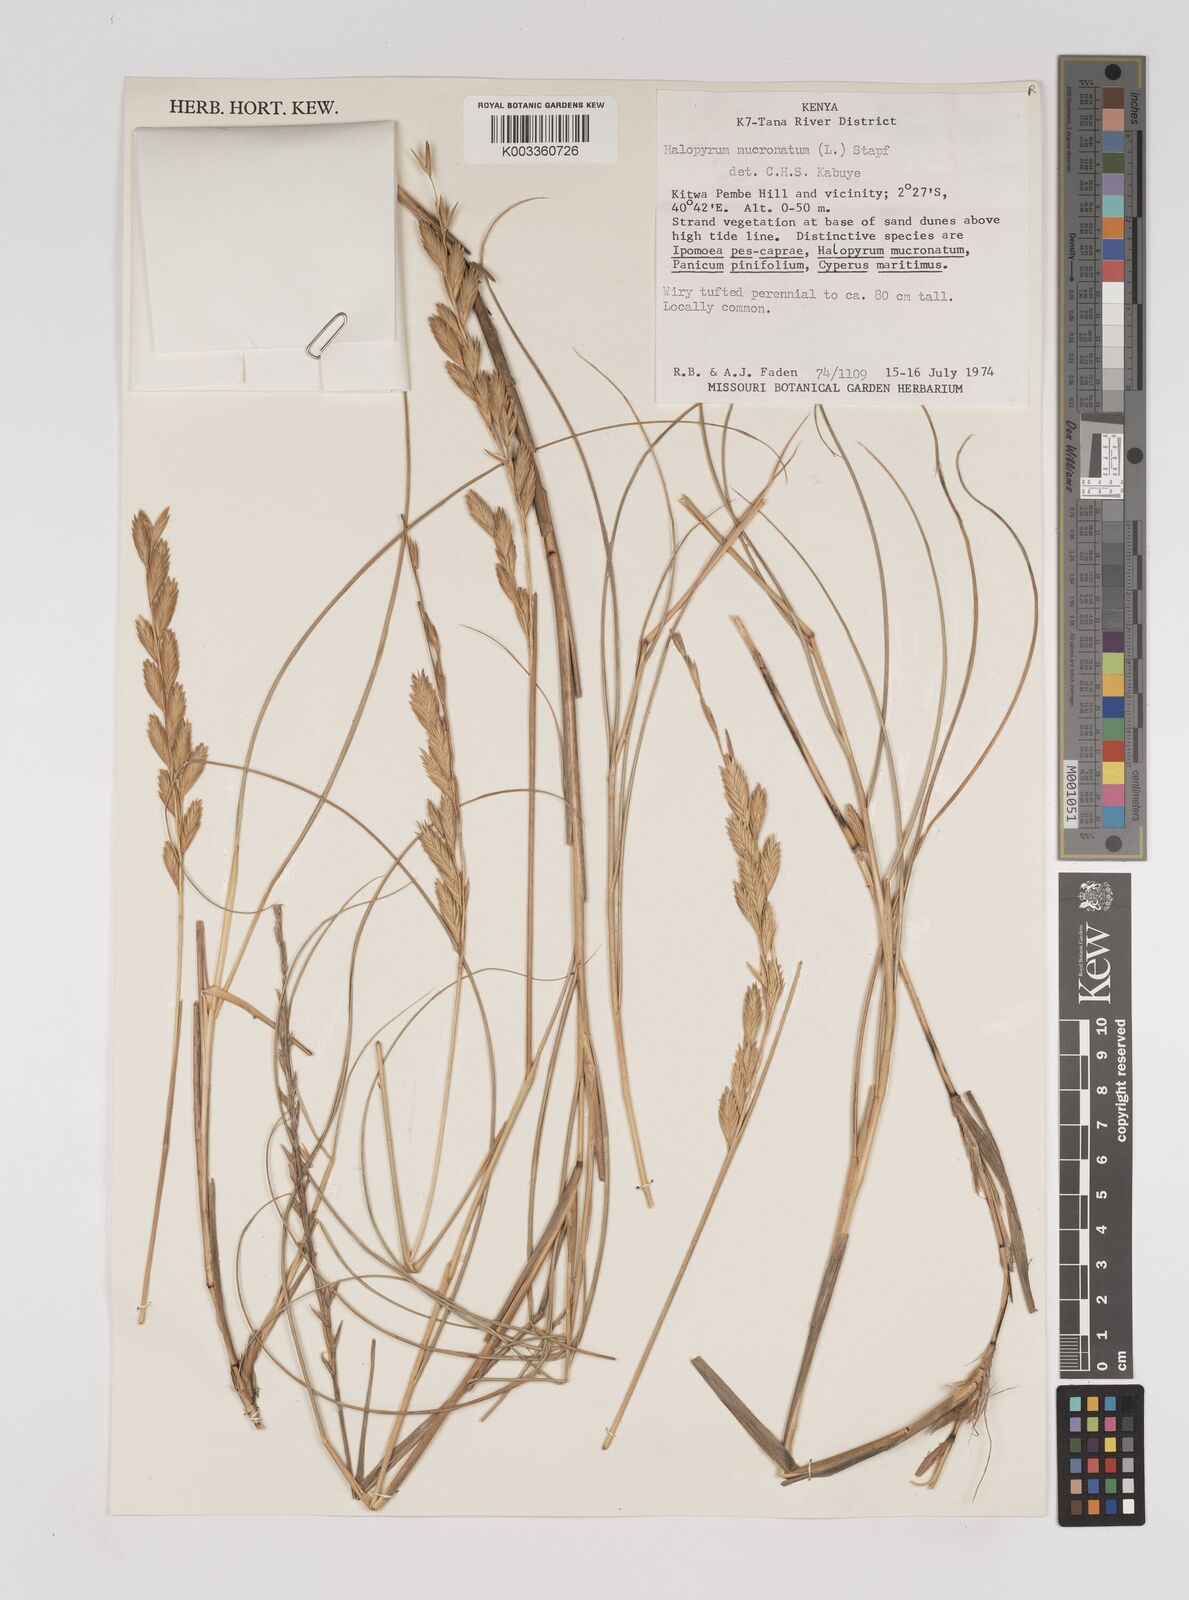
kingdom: Plantae
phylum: Tracheophyta
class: Liliopsida
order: Poales
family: Poaceae
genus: Halopyrum
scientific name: Halopyrum mucronatum
